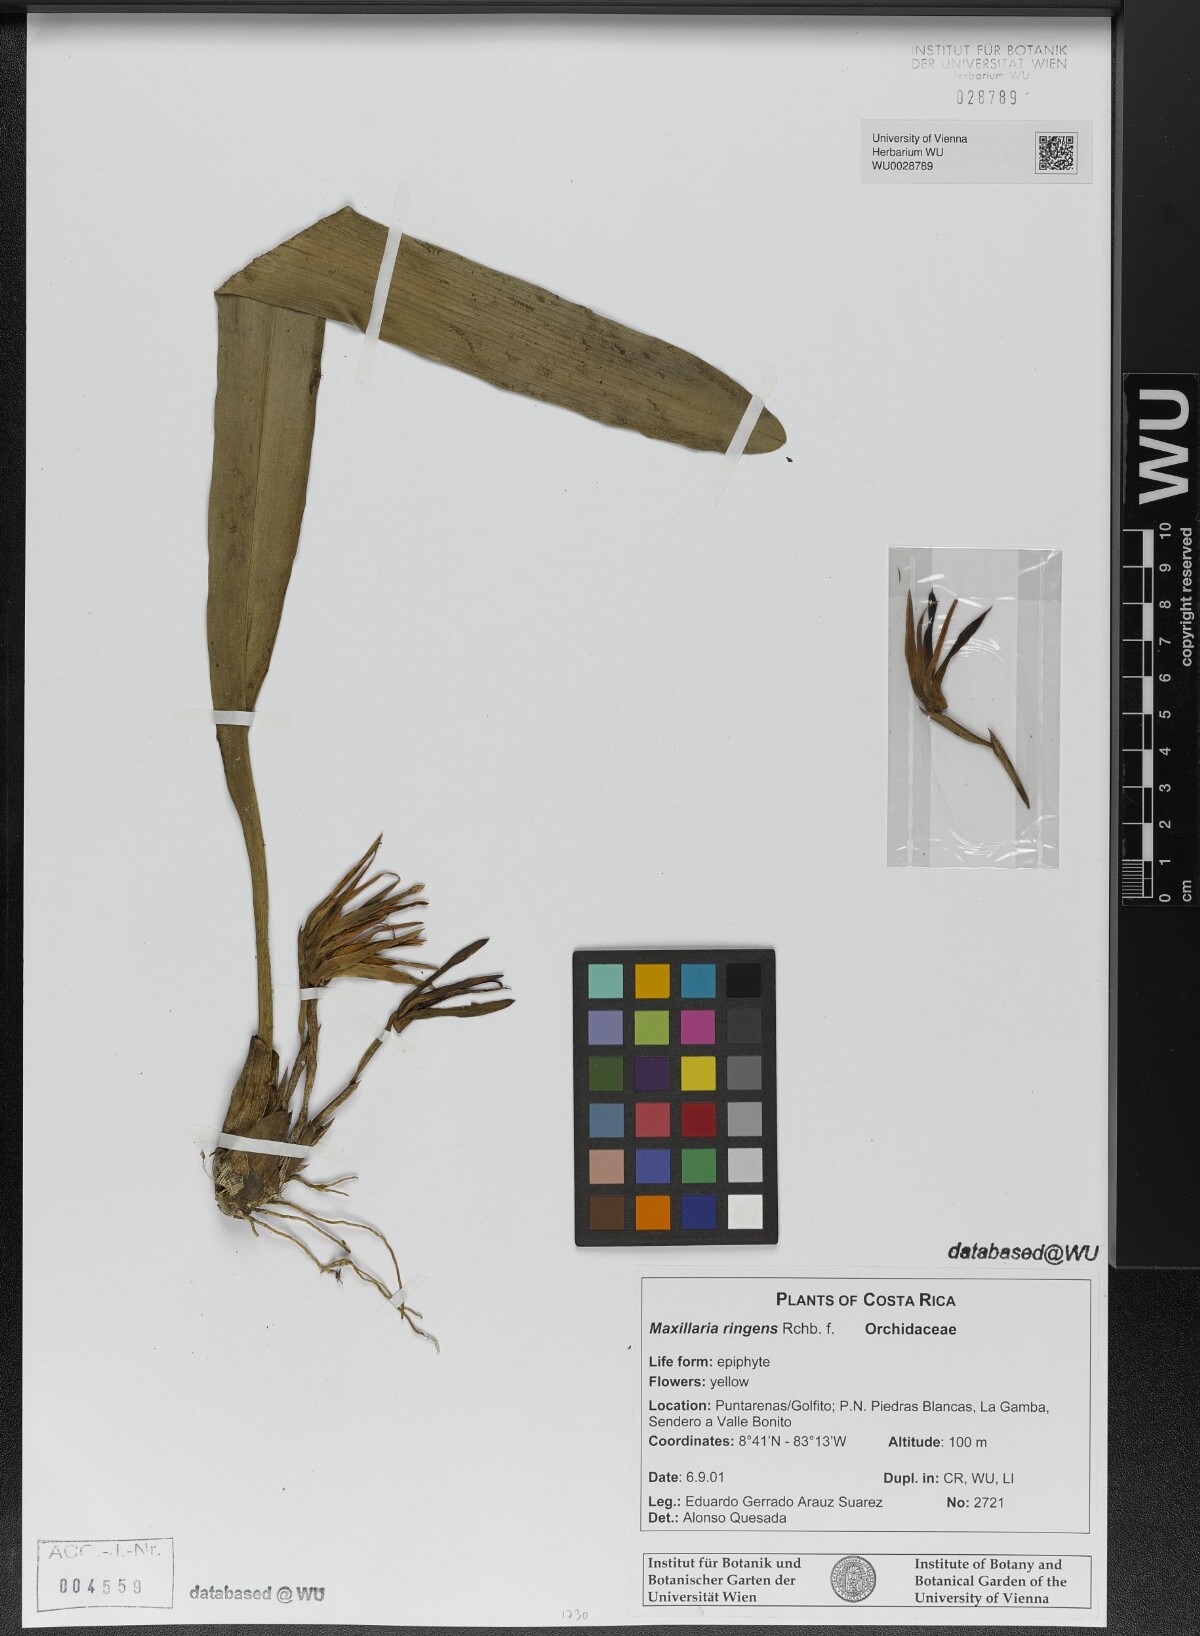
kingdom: Plantae
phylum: Tracheophyta
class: Liliopsida
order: Asparagales
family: Orchidaceae
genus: Maxillaria
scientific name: Maxillaria ringens
